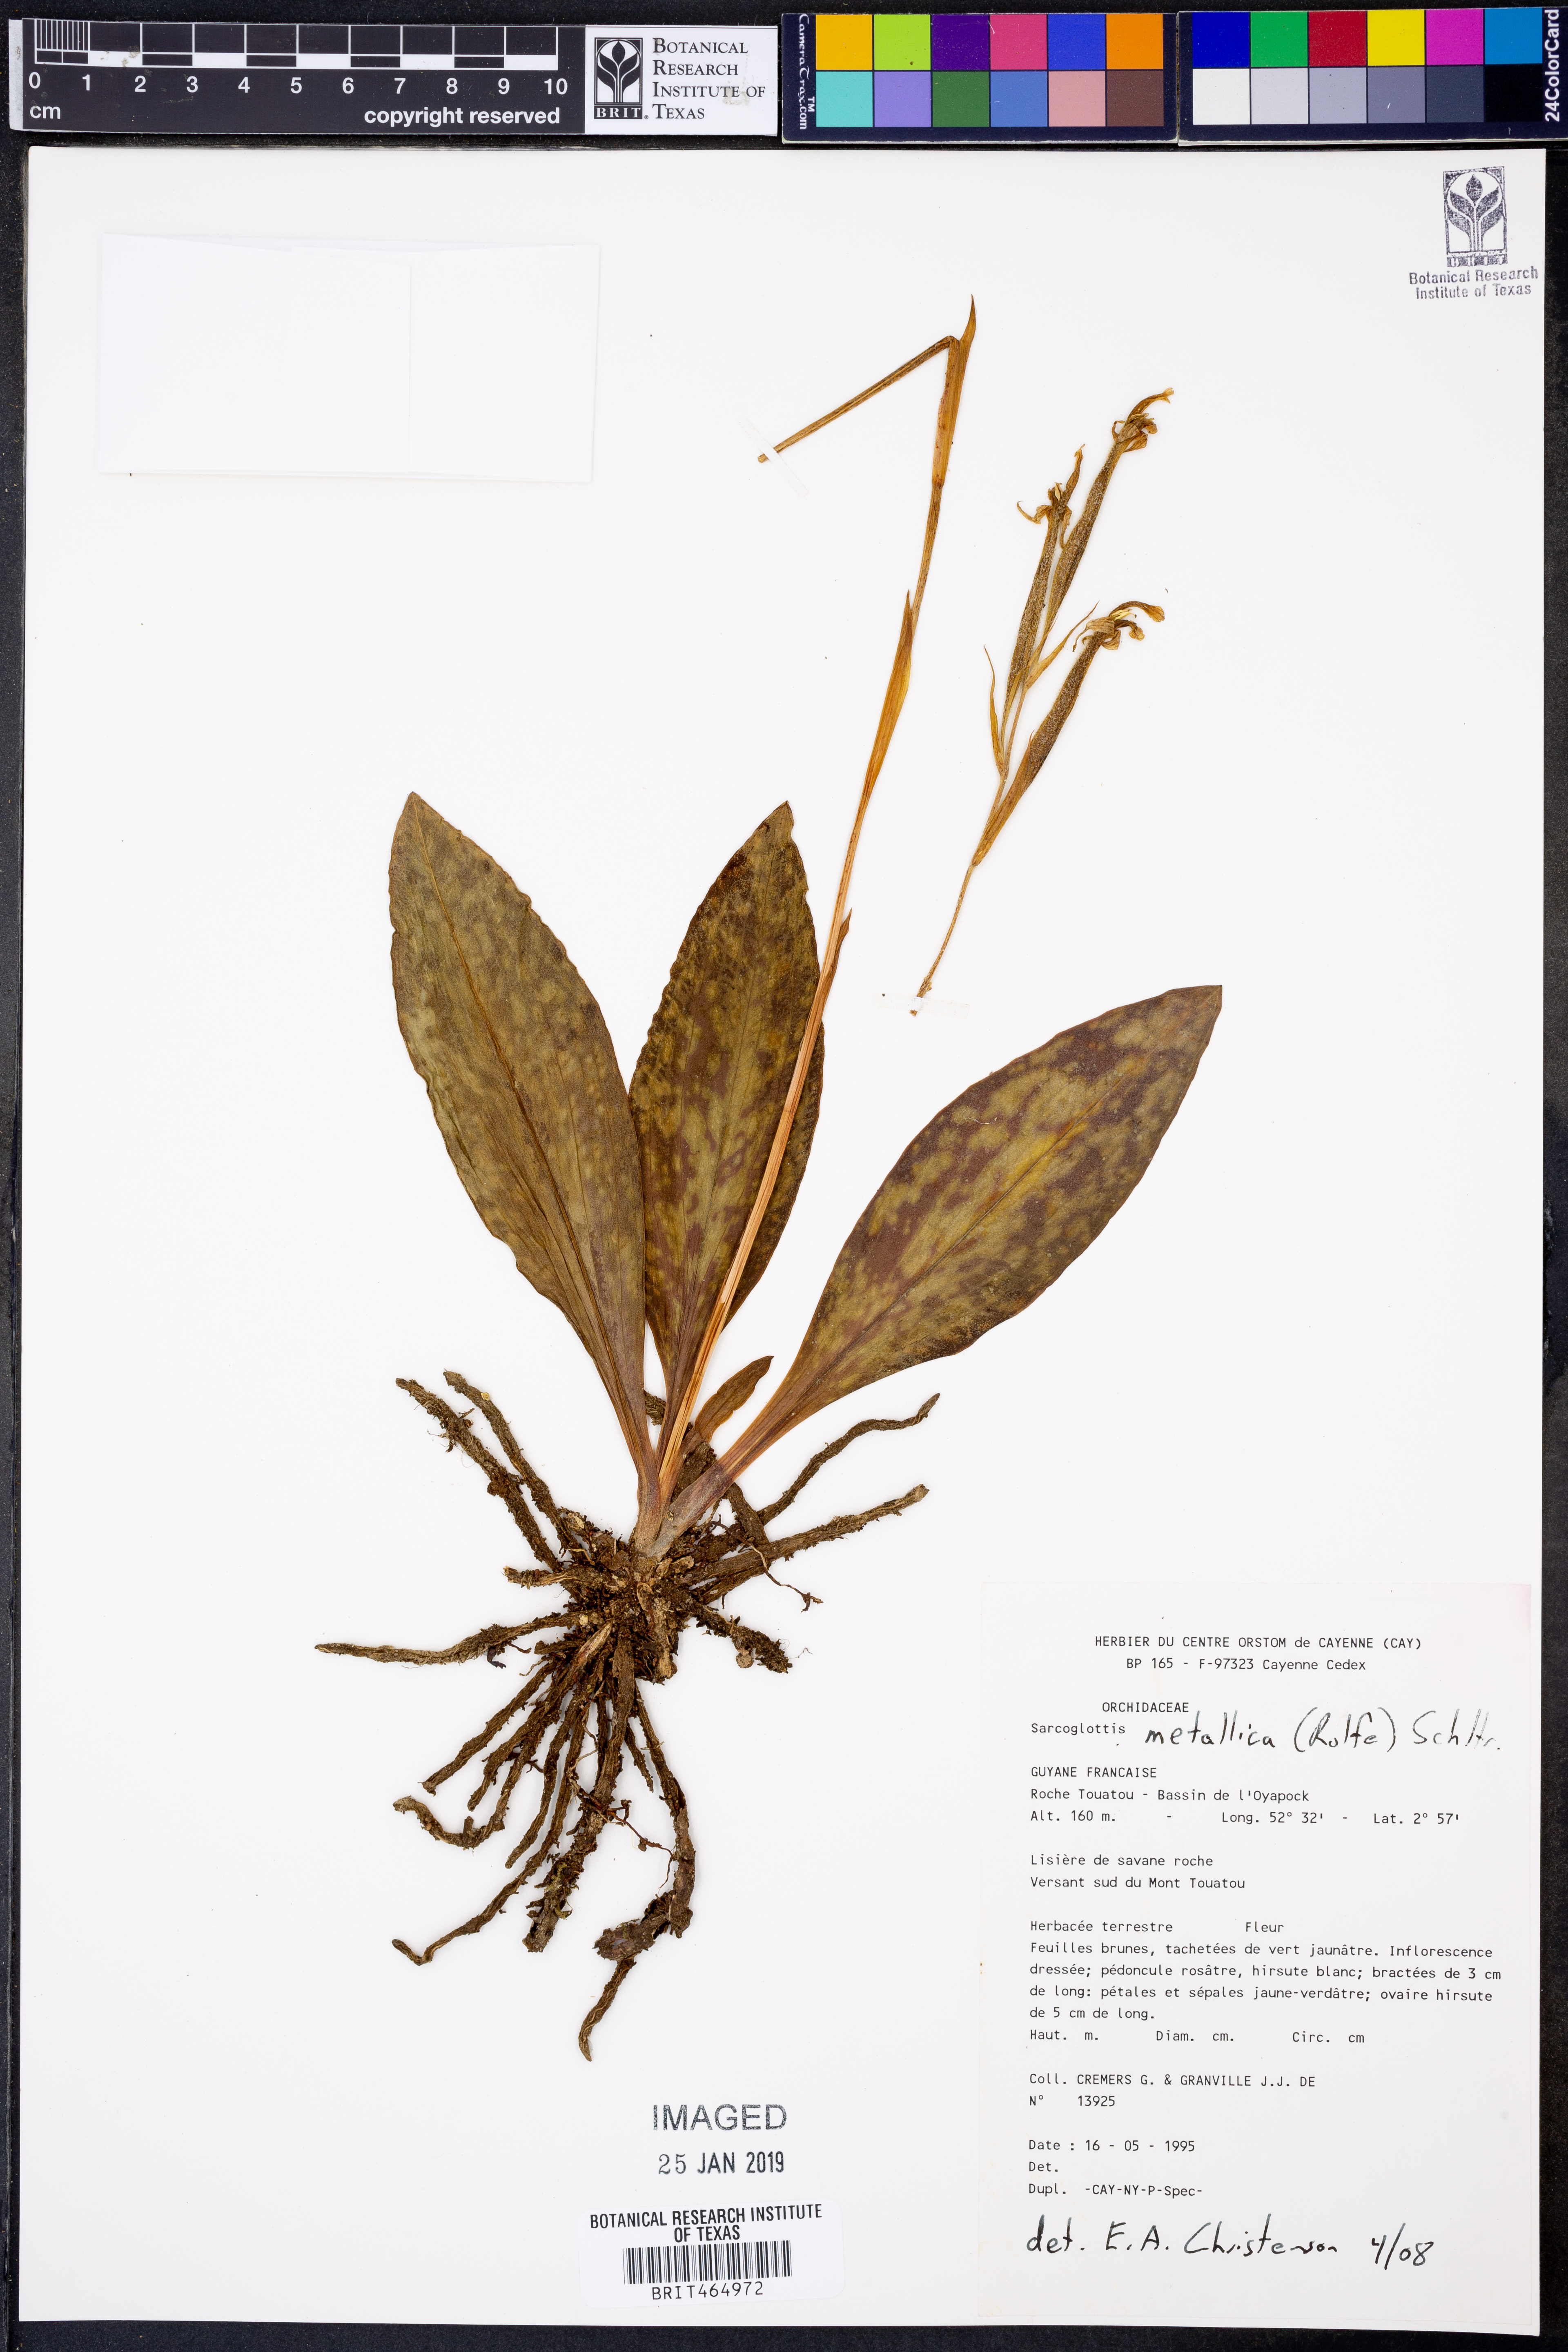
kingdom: Plantae
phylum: Tracheophyta
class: Liliopsida
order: Asparagales
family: Orchidaceae
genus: Sarcoglottis
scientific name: Sarcoglottis metallica
